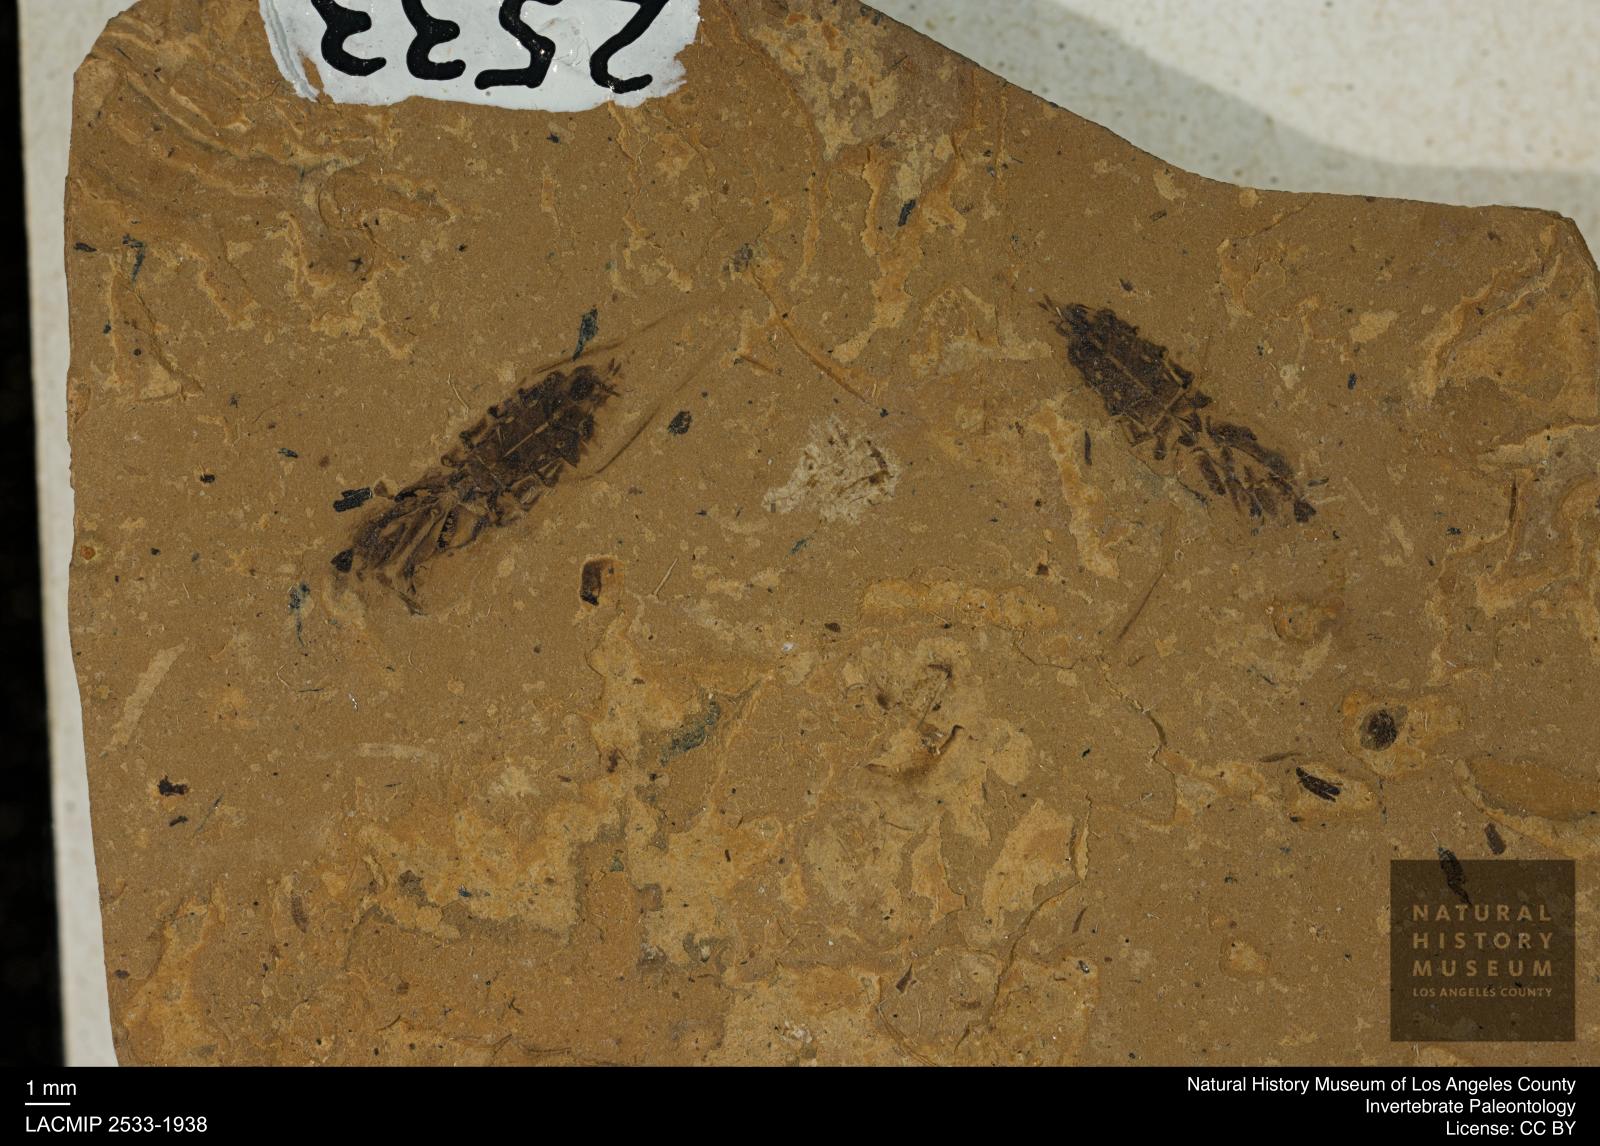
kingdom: Animalia
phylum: Arthropoda
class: Insecta
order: Hemiptera
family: Notonectidae
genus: Anisops
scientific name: Anisops Notonecta deichmuelleri
